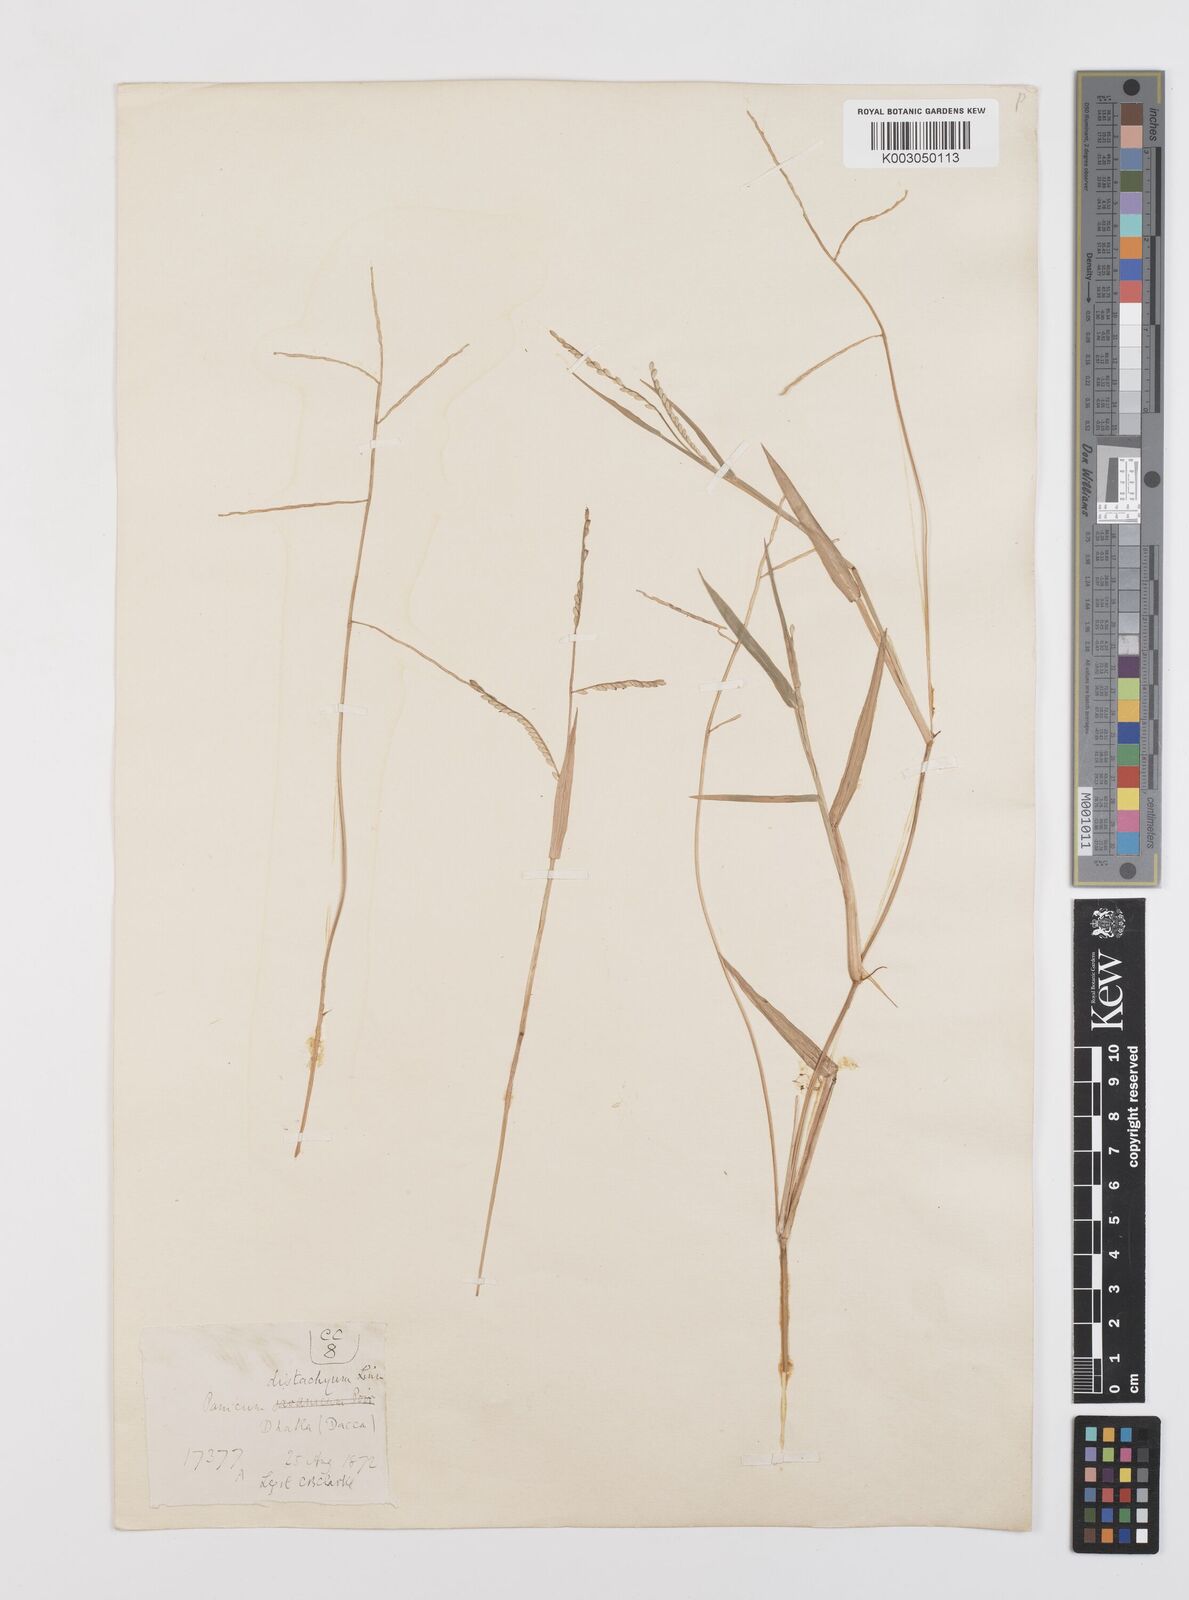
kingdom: Plantae
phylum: Tracheophyta
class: Liliopsida
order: Poales
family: Poaceae
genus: Urochloa
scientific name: Urochloa subquadripara
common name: Armgrass millet
